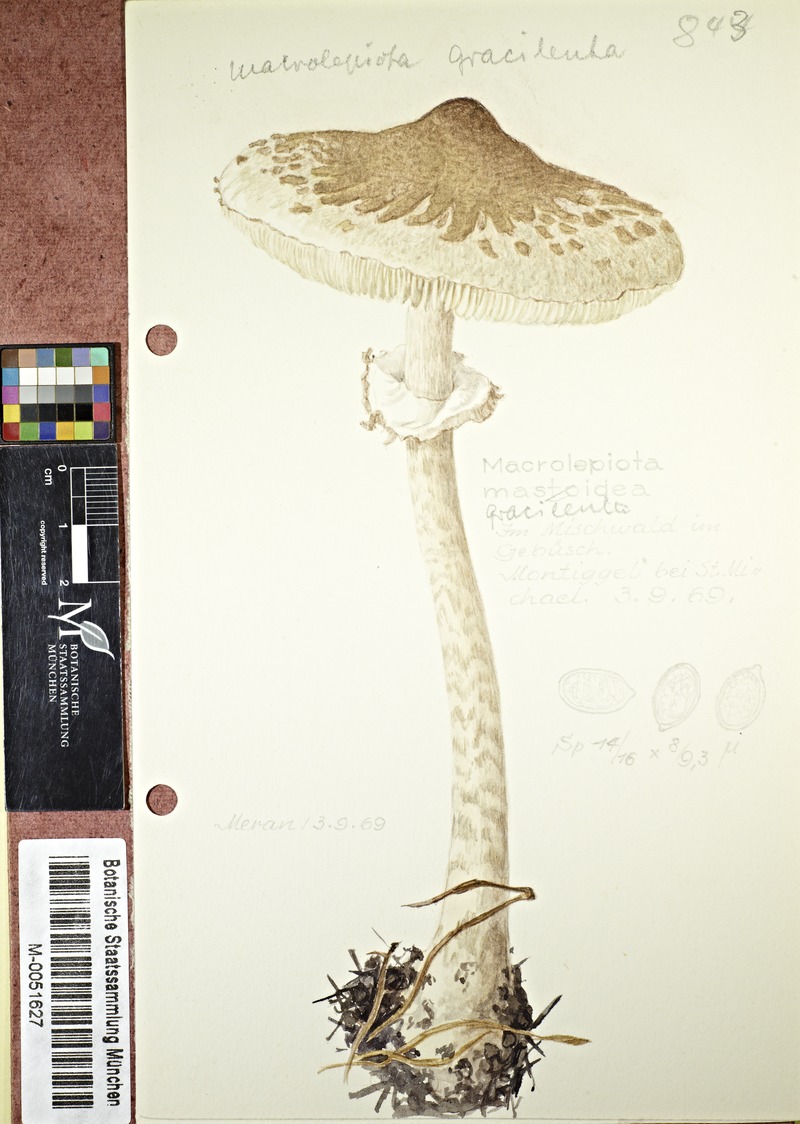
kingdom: Fungi
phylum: Basidiomycota
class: Agaricomycetes
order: Agaricales
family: Agaricaceae
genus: Macrolepiota
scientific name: Macrolepiota mastoidea
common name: Slender parasol
